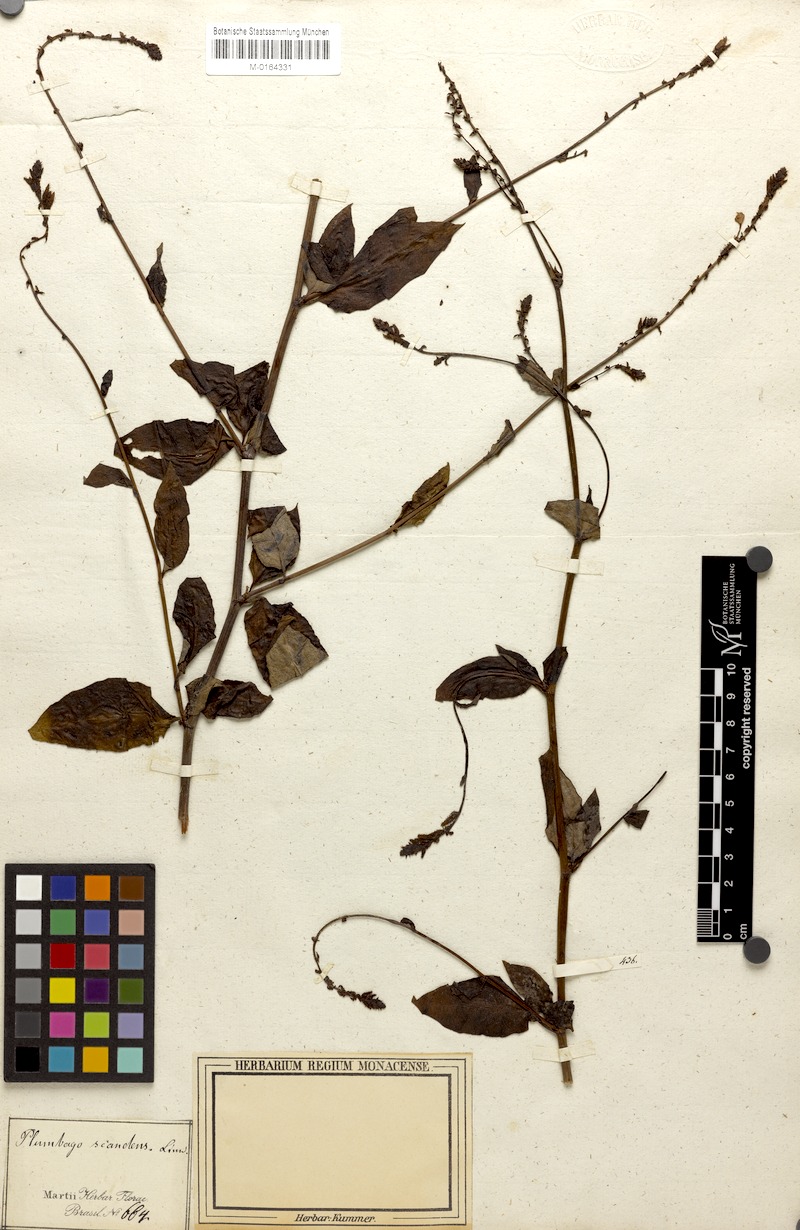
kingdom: Plantae
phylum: Tracheophyta
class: Magnoliopsida
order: Caryophyllales
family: Plumbaginaceae
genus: Plumbago
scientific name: Plumbago zeylanica
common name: Doctorbush
